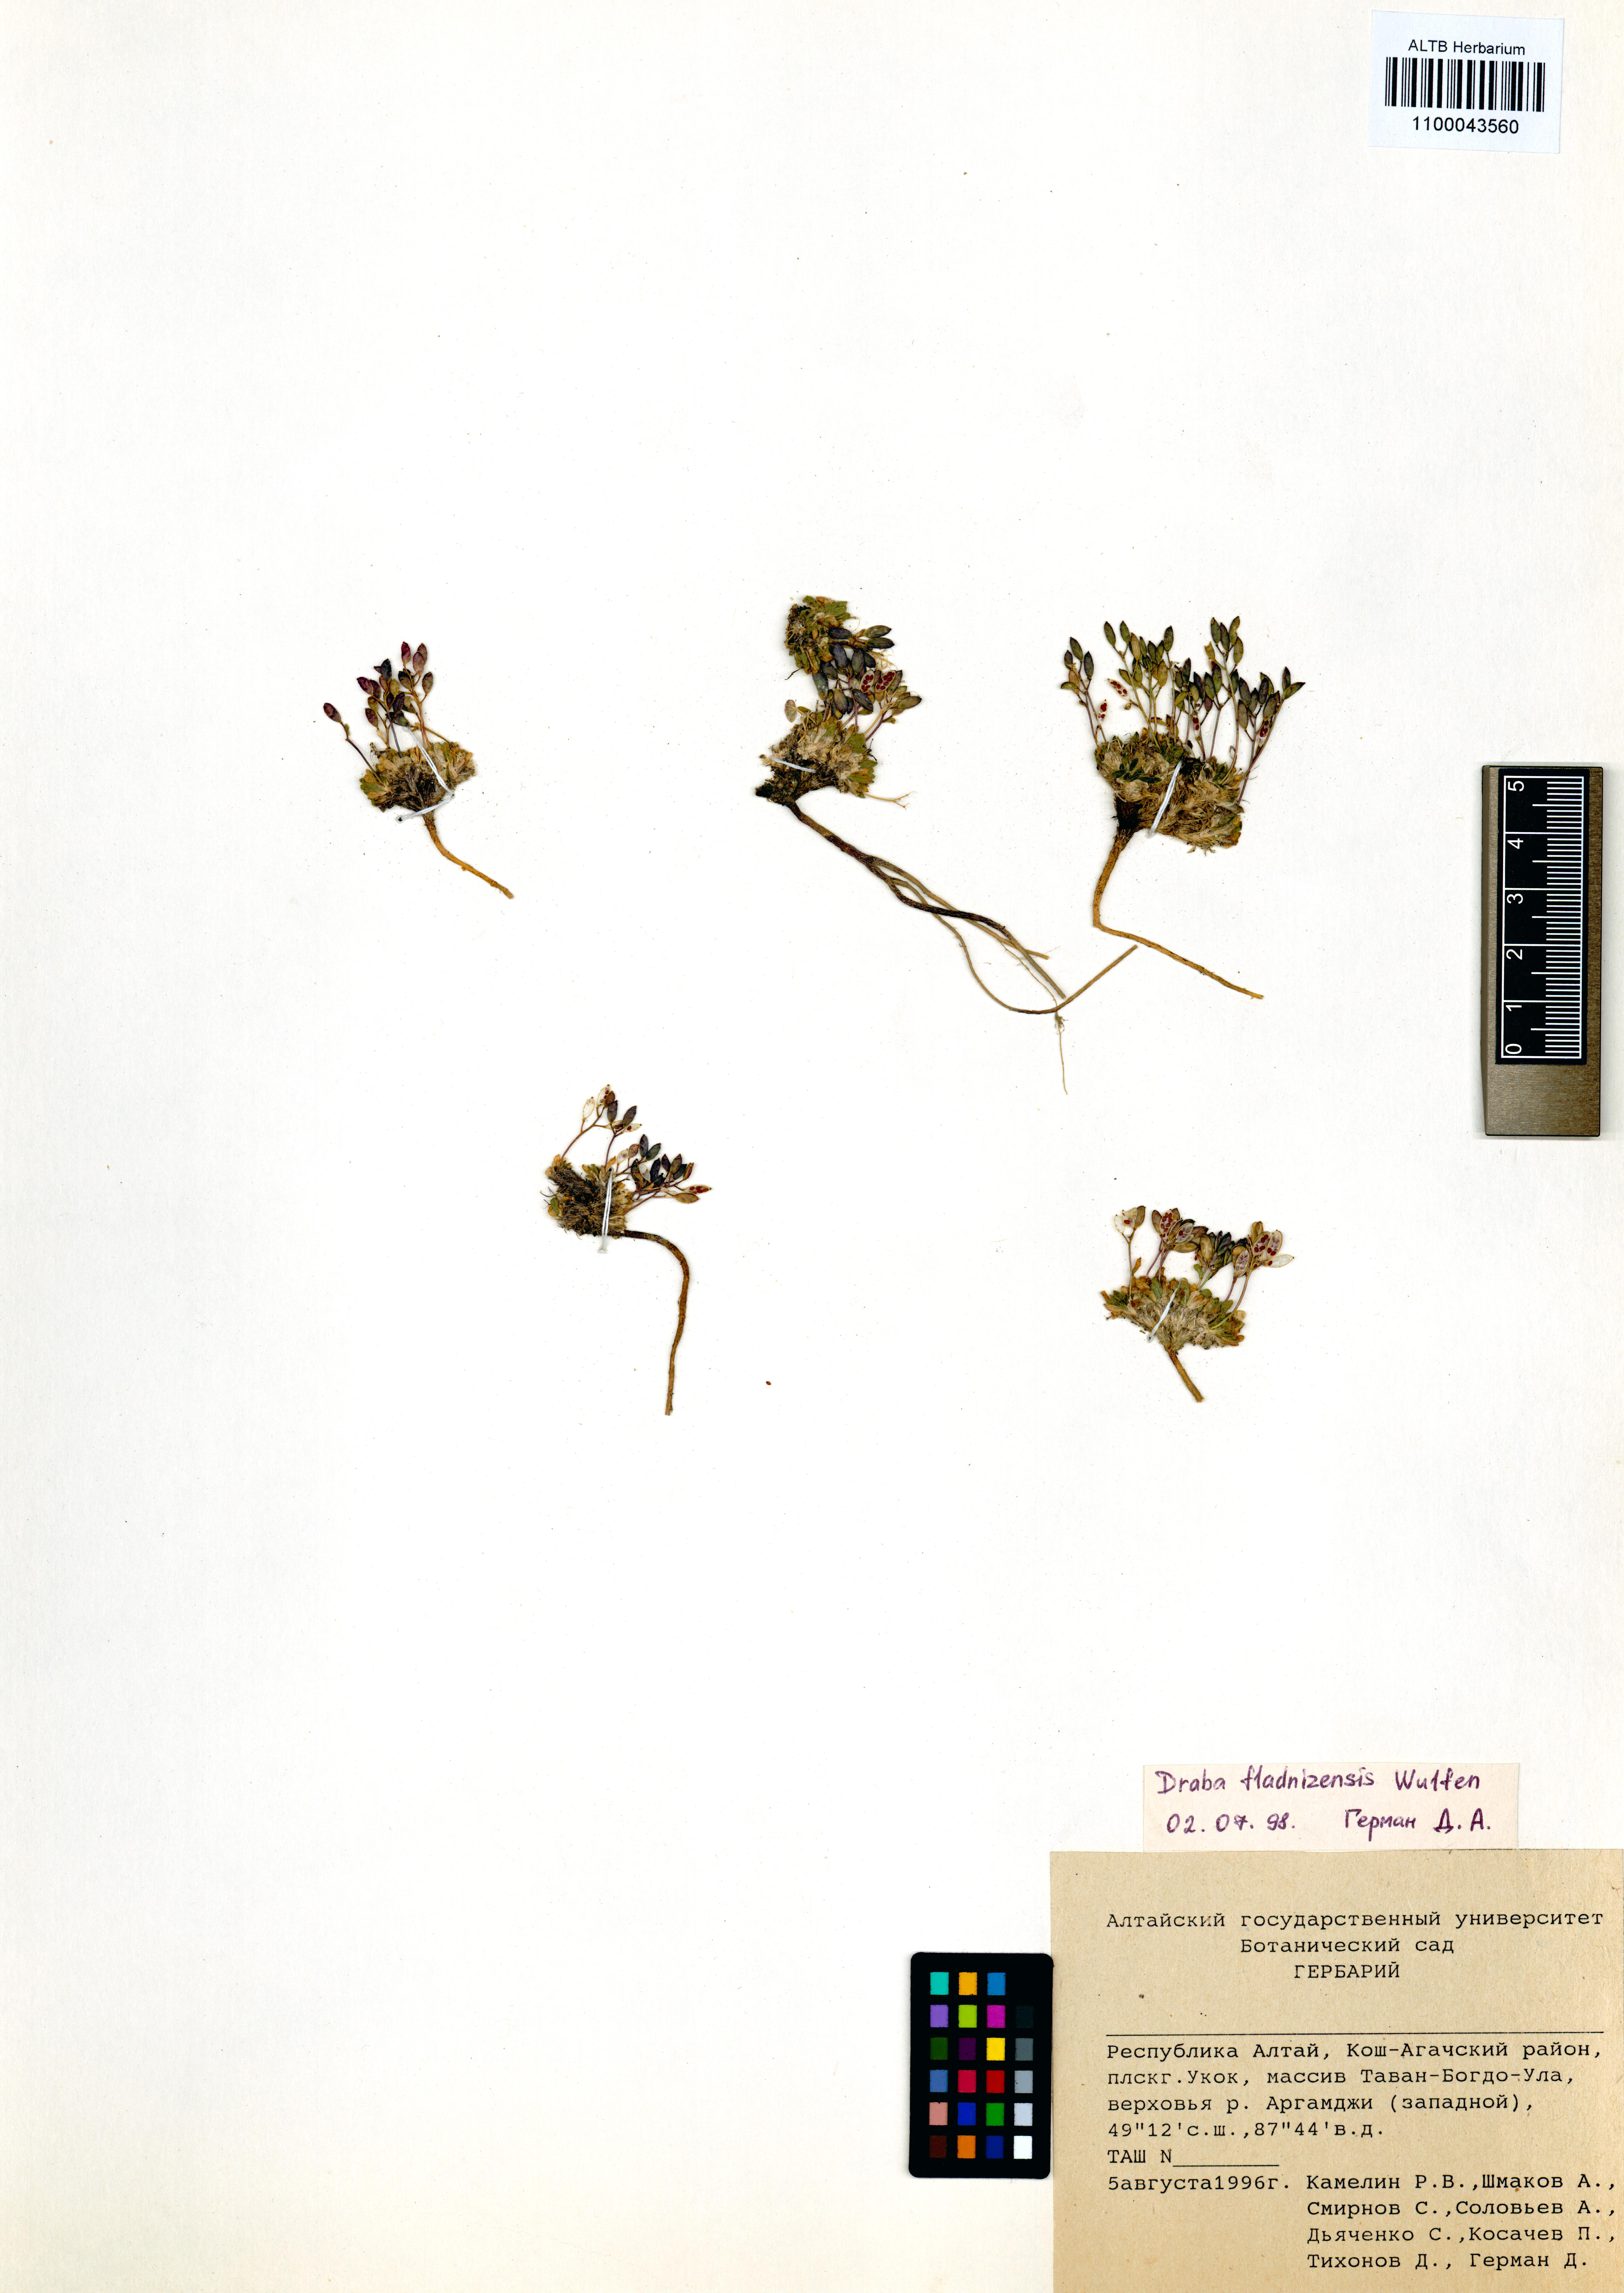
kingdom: Plantae
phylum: Tracheophyta
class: Magnoliopsida
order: Brassicales
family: Brassicaceae
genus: Draba
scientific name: Draba fladnizensis
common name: Austrian draba
